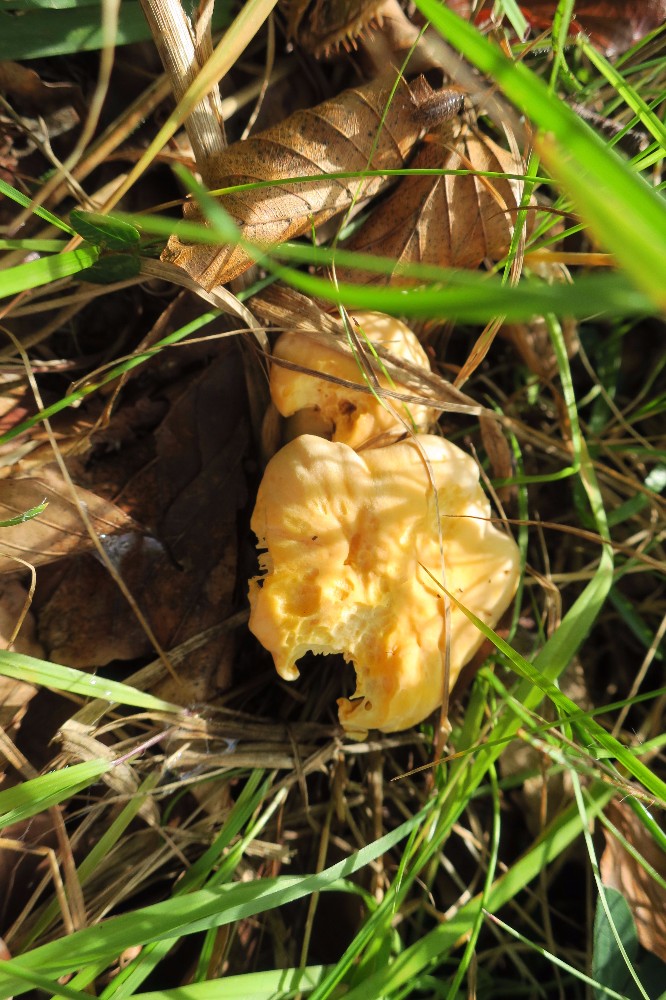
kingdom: Fungi
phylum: Basidiomycota
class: Agaricomycetes
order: Cantharellales
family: Hydnaceae
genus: Cantharellus
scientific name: Cantharellus pallens
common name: bleg kantarel
